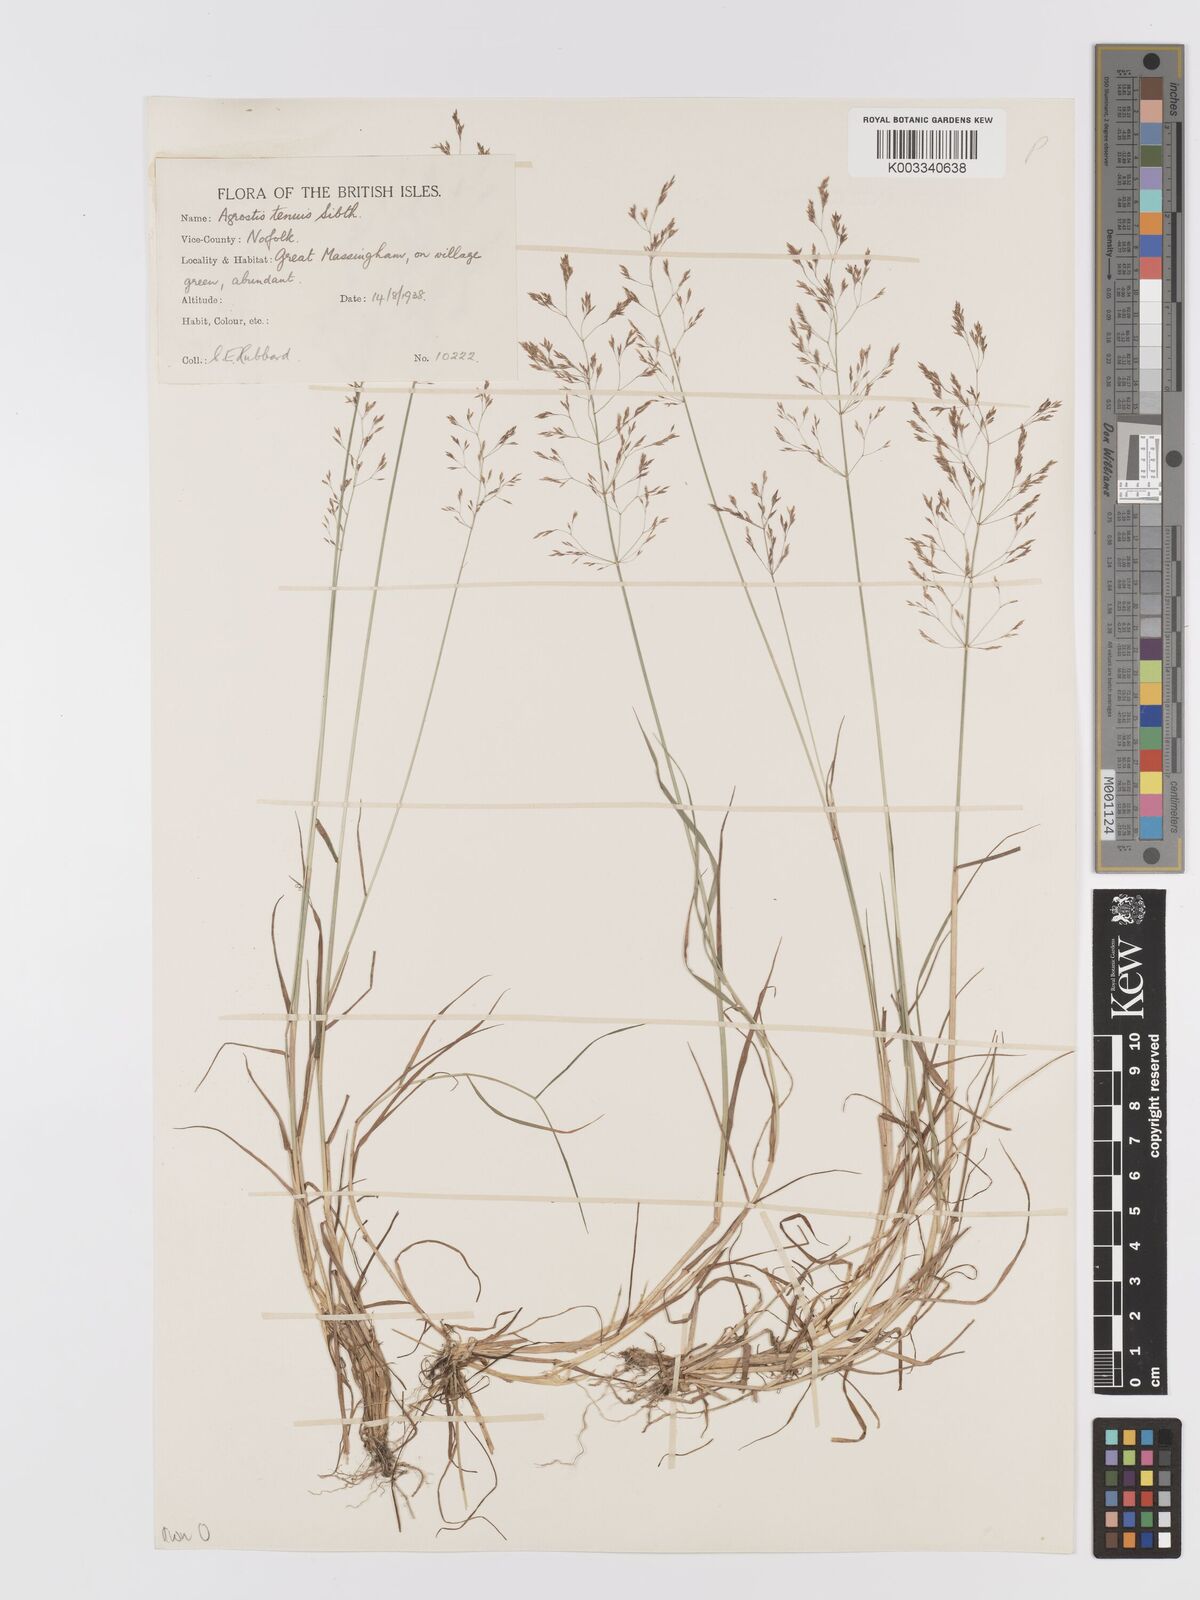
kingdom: Plantae
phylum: Tracheophyta
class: Liliopsida
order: Poales
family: Poaceae
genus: Agrostis
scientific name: Agrostis capillaris
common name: Colonial bentgrass
